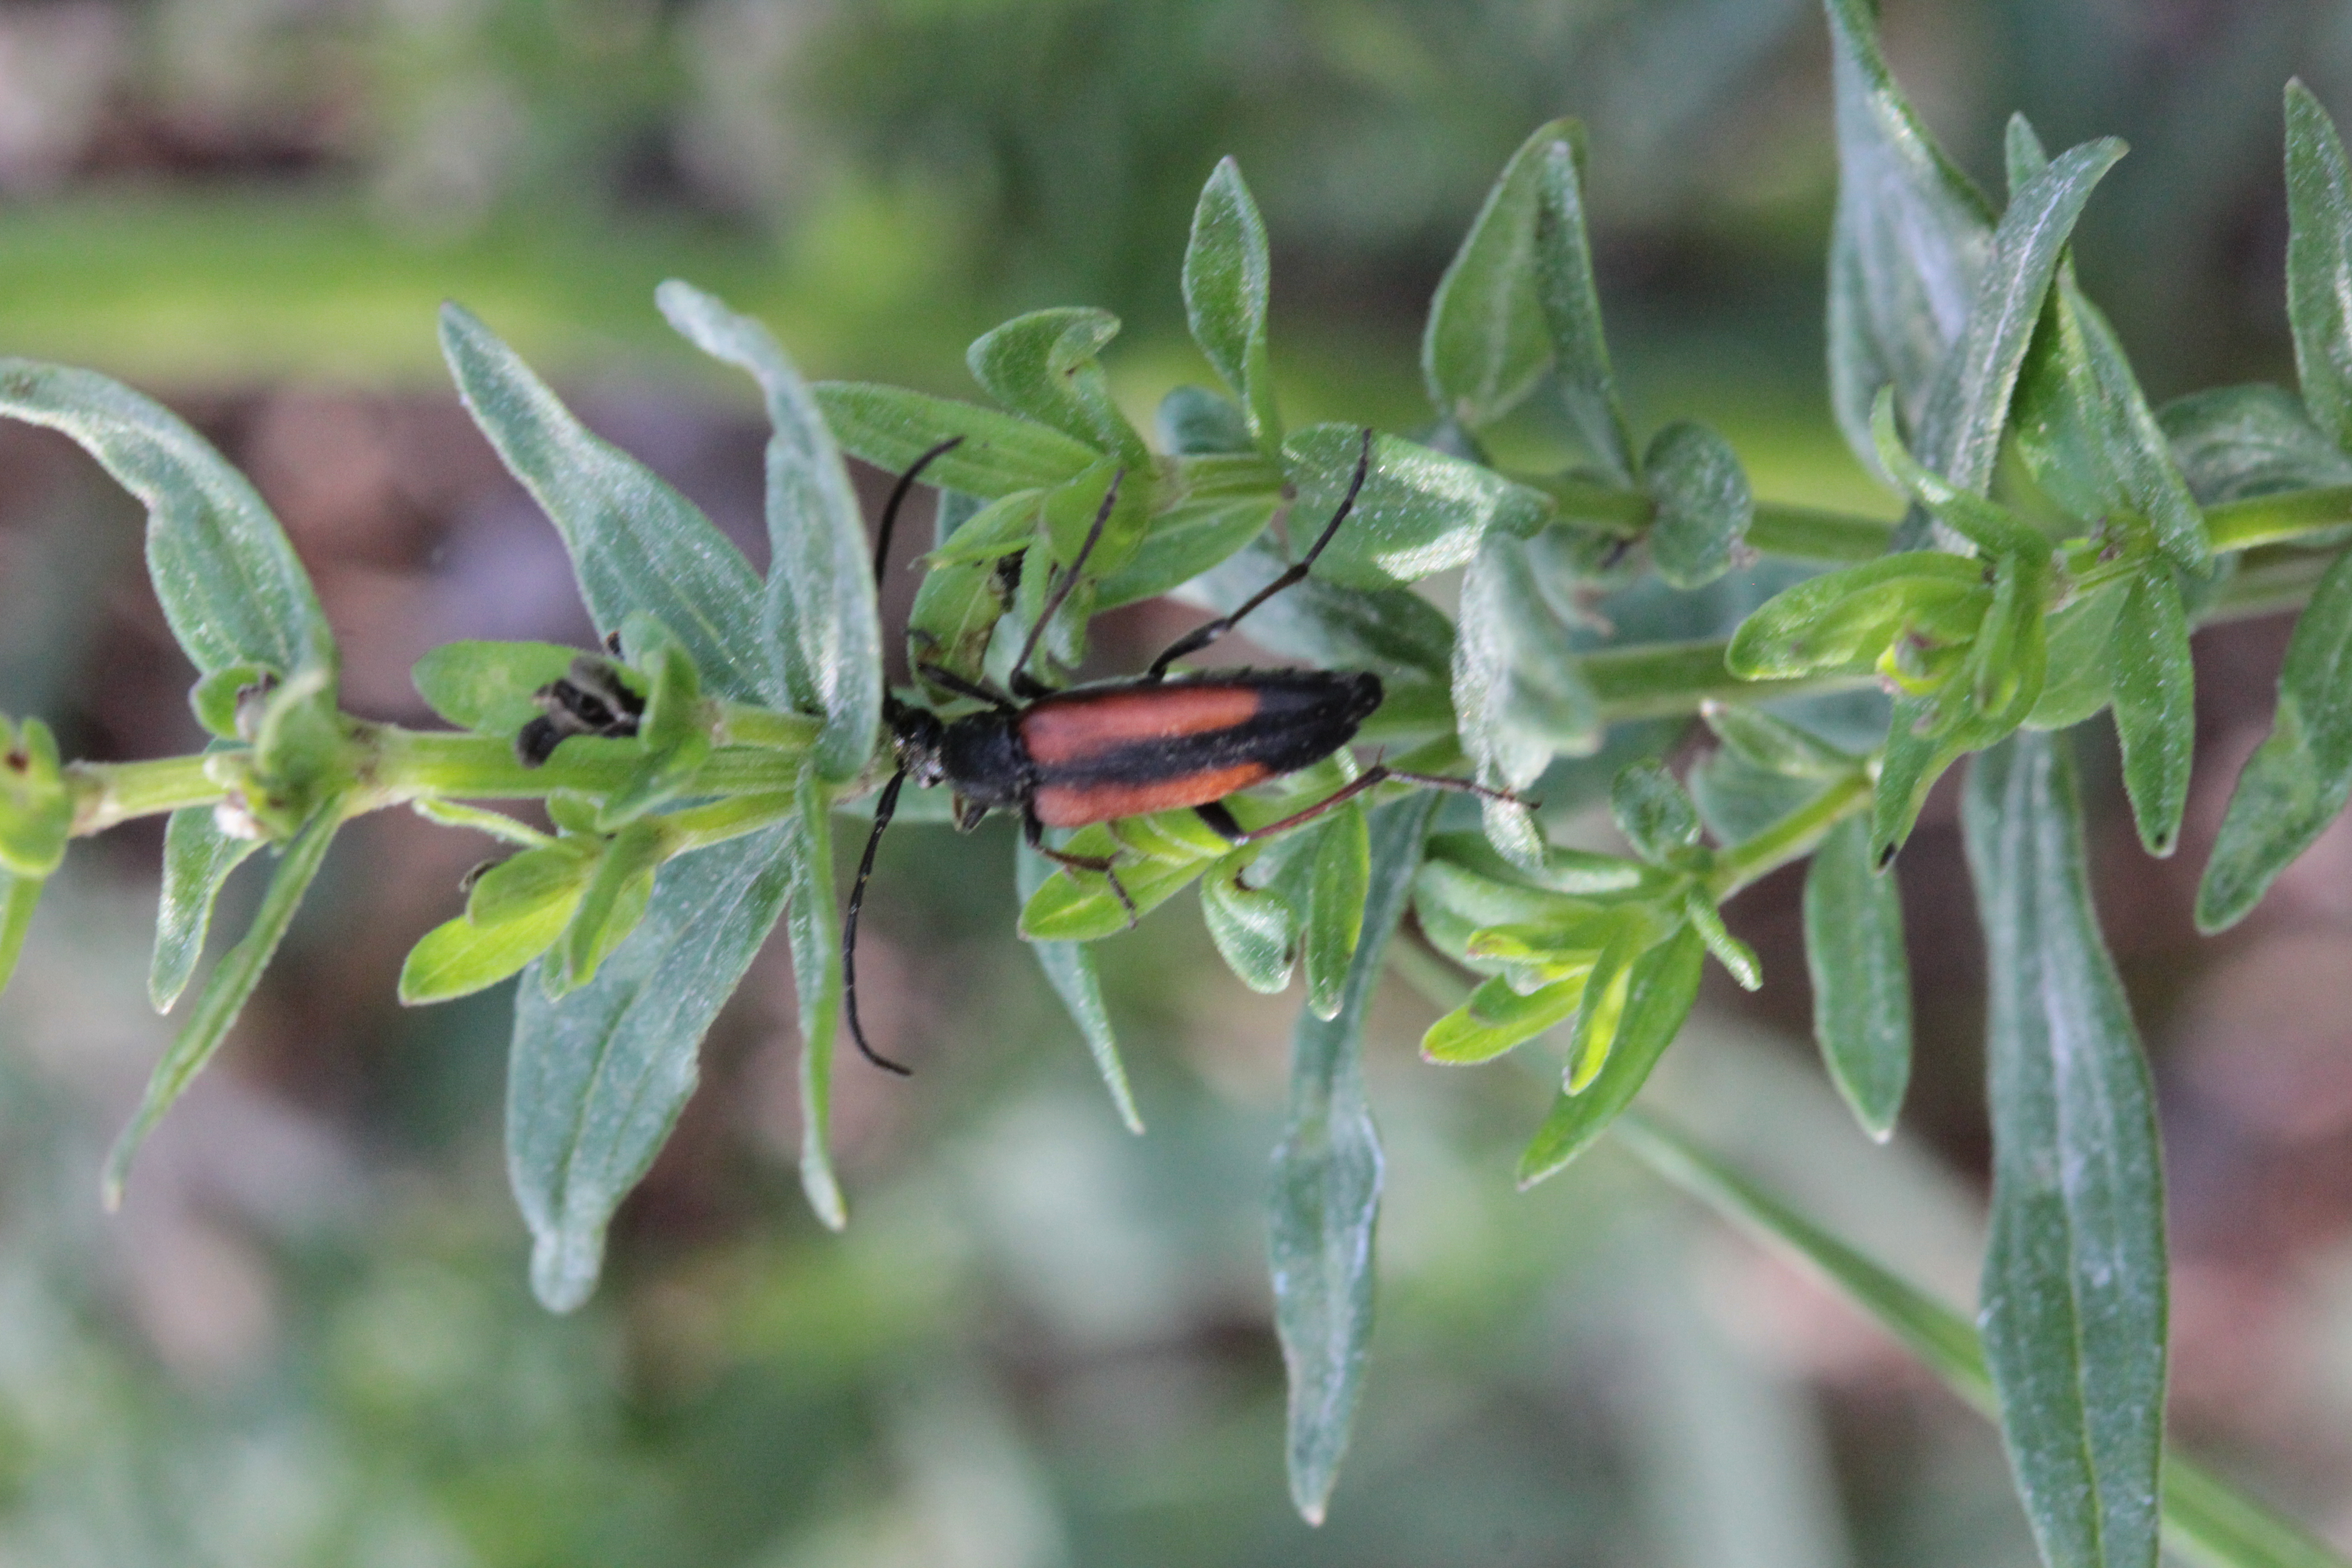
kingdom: Animalia
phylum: Arthropoda
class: Insecta
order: Coleoptera
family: Cerambycidae
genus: Stenurella
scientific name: Stenurella melanura
